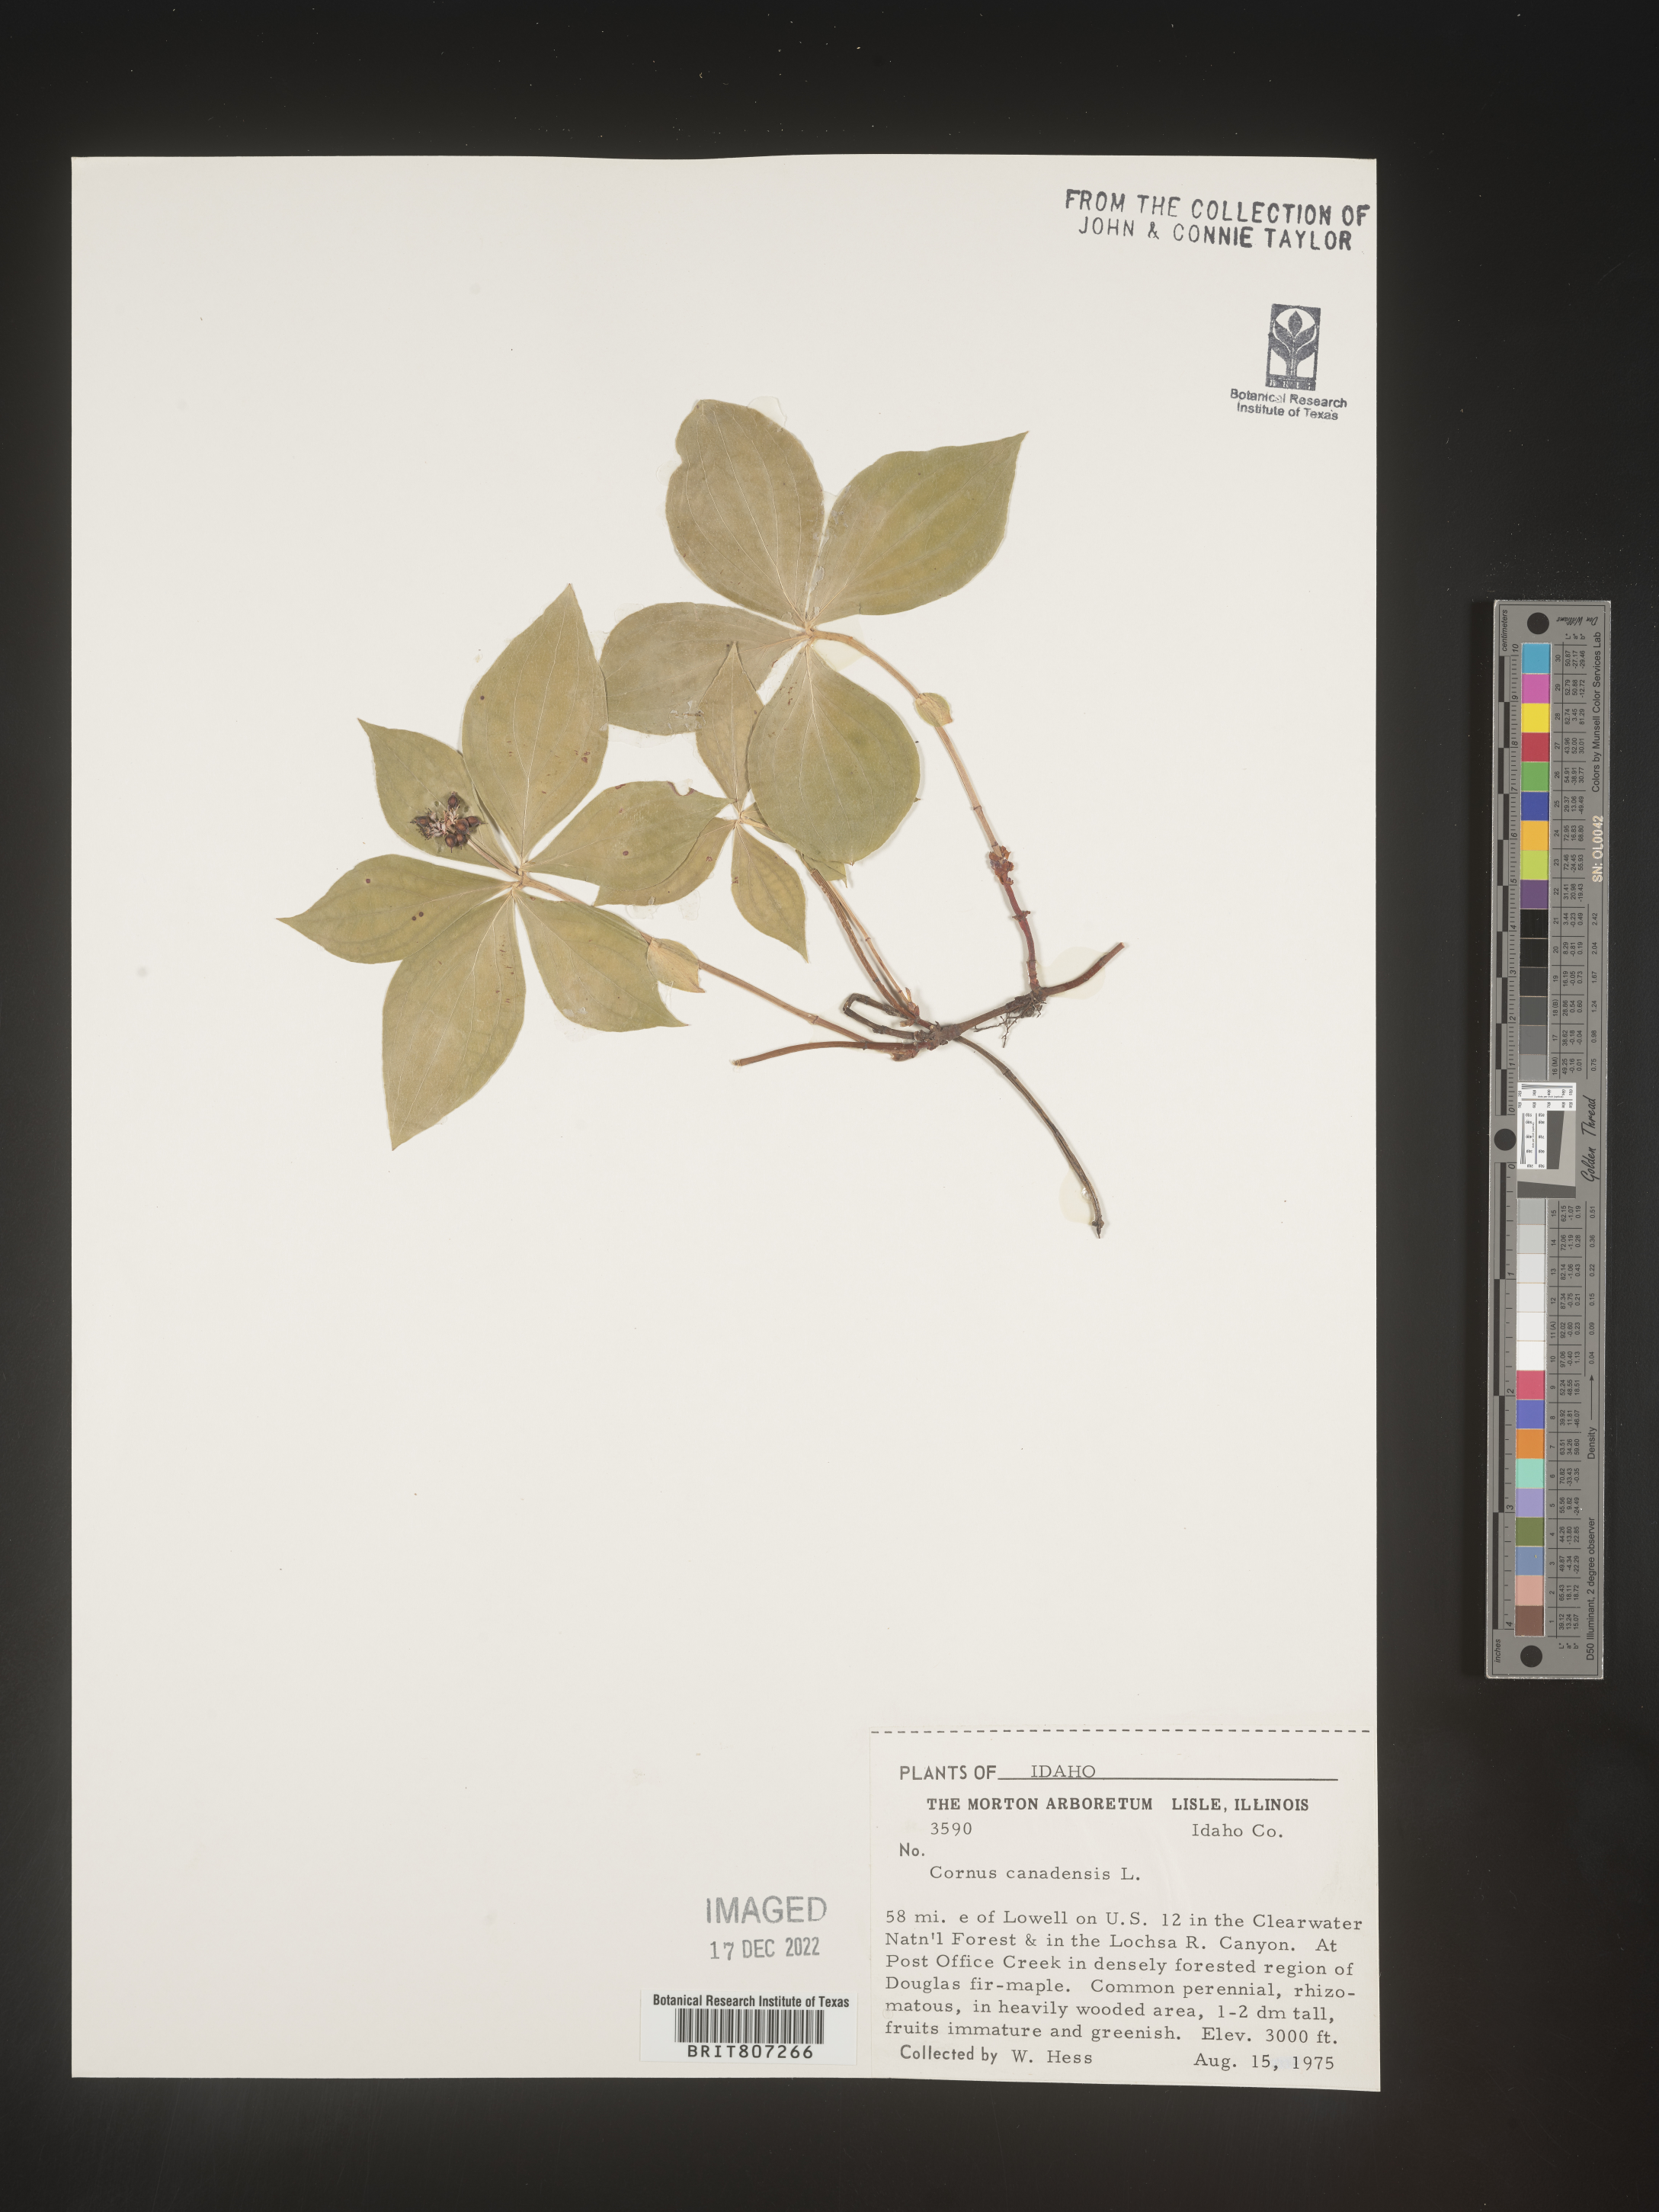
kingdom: Plantae
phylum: Tracheophyta
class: Magnoliopsida
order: Cornales
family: Cornaceae
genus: Cornus
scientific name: Cornus canadensis
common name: Creeping dogwood
